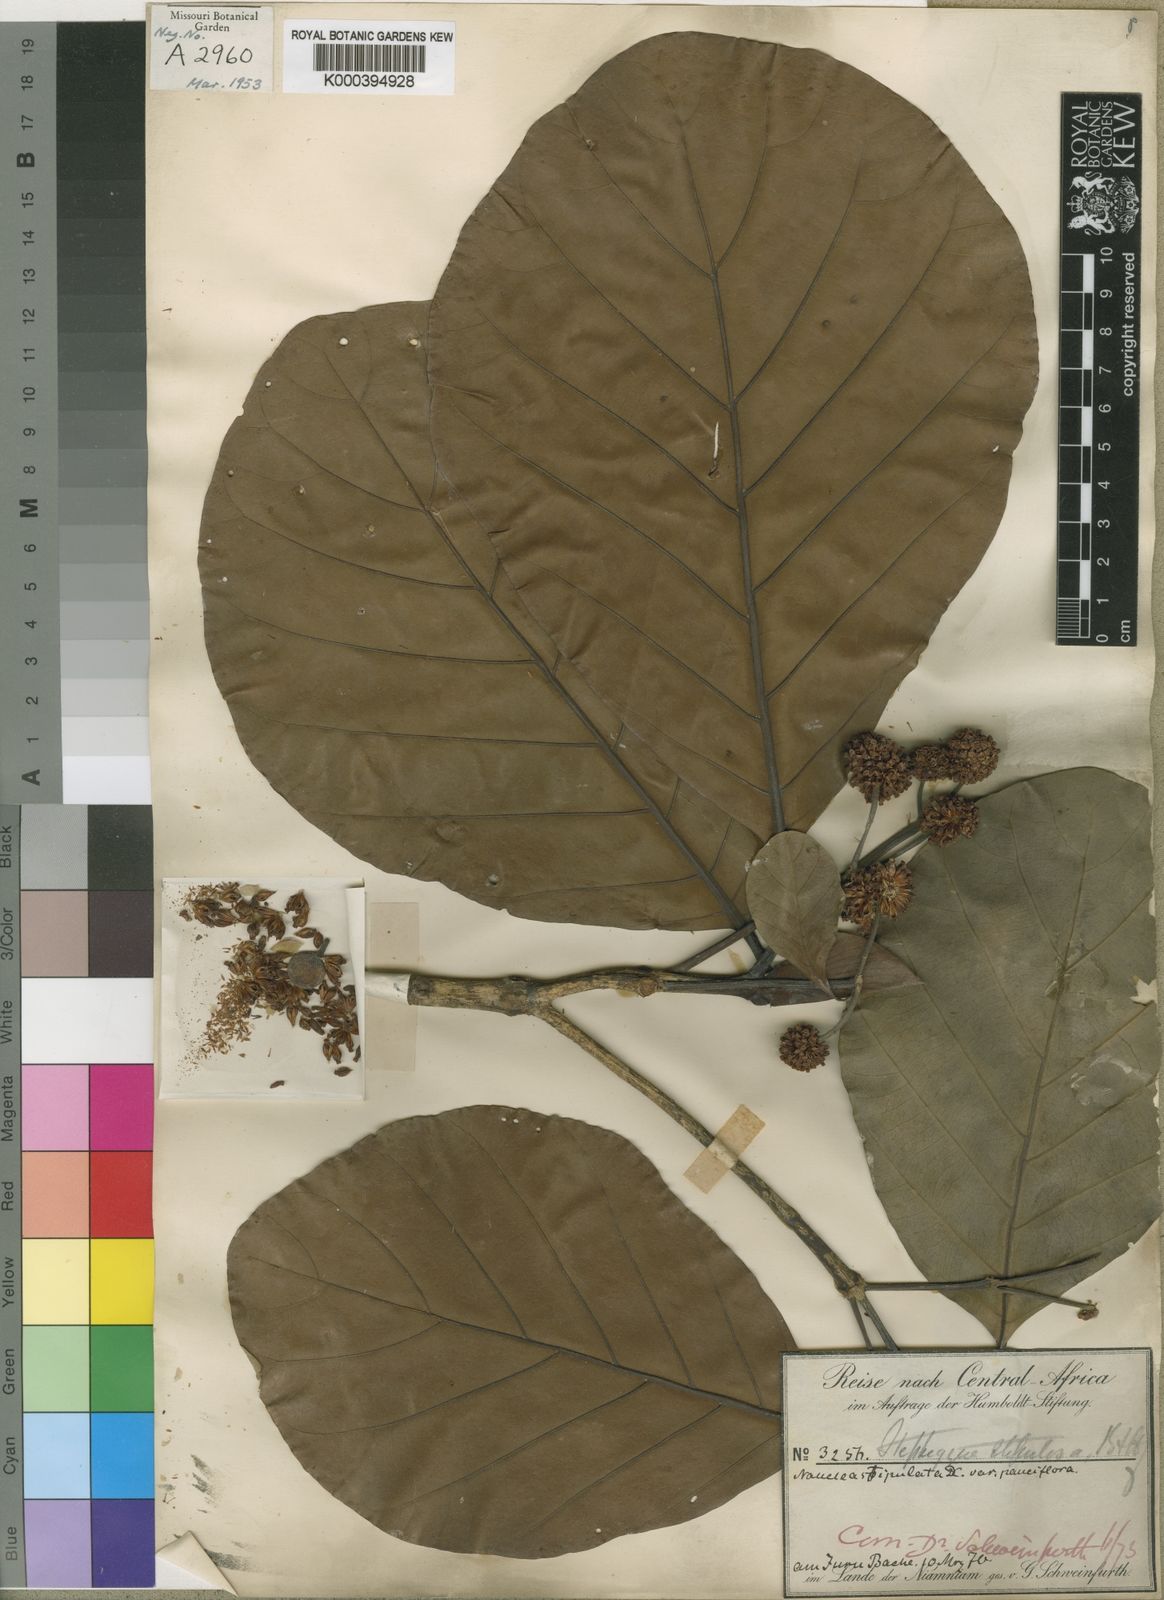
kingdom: Plantae
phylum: Tracheophyta
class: Magnoliopsida
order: Gentianales
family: Rubiaceae
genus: Mitragyna
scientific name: Mitragyna stipulosa
